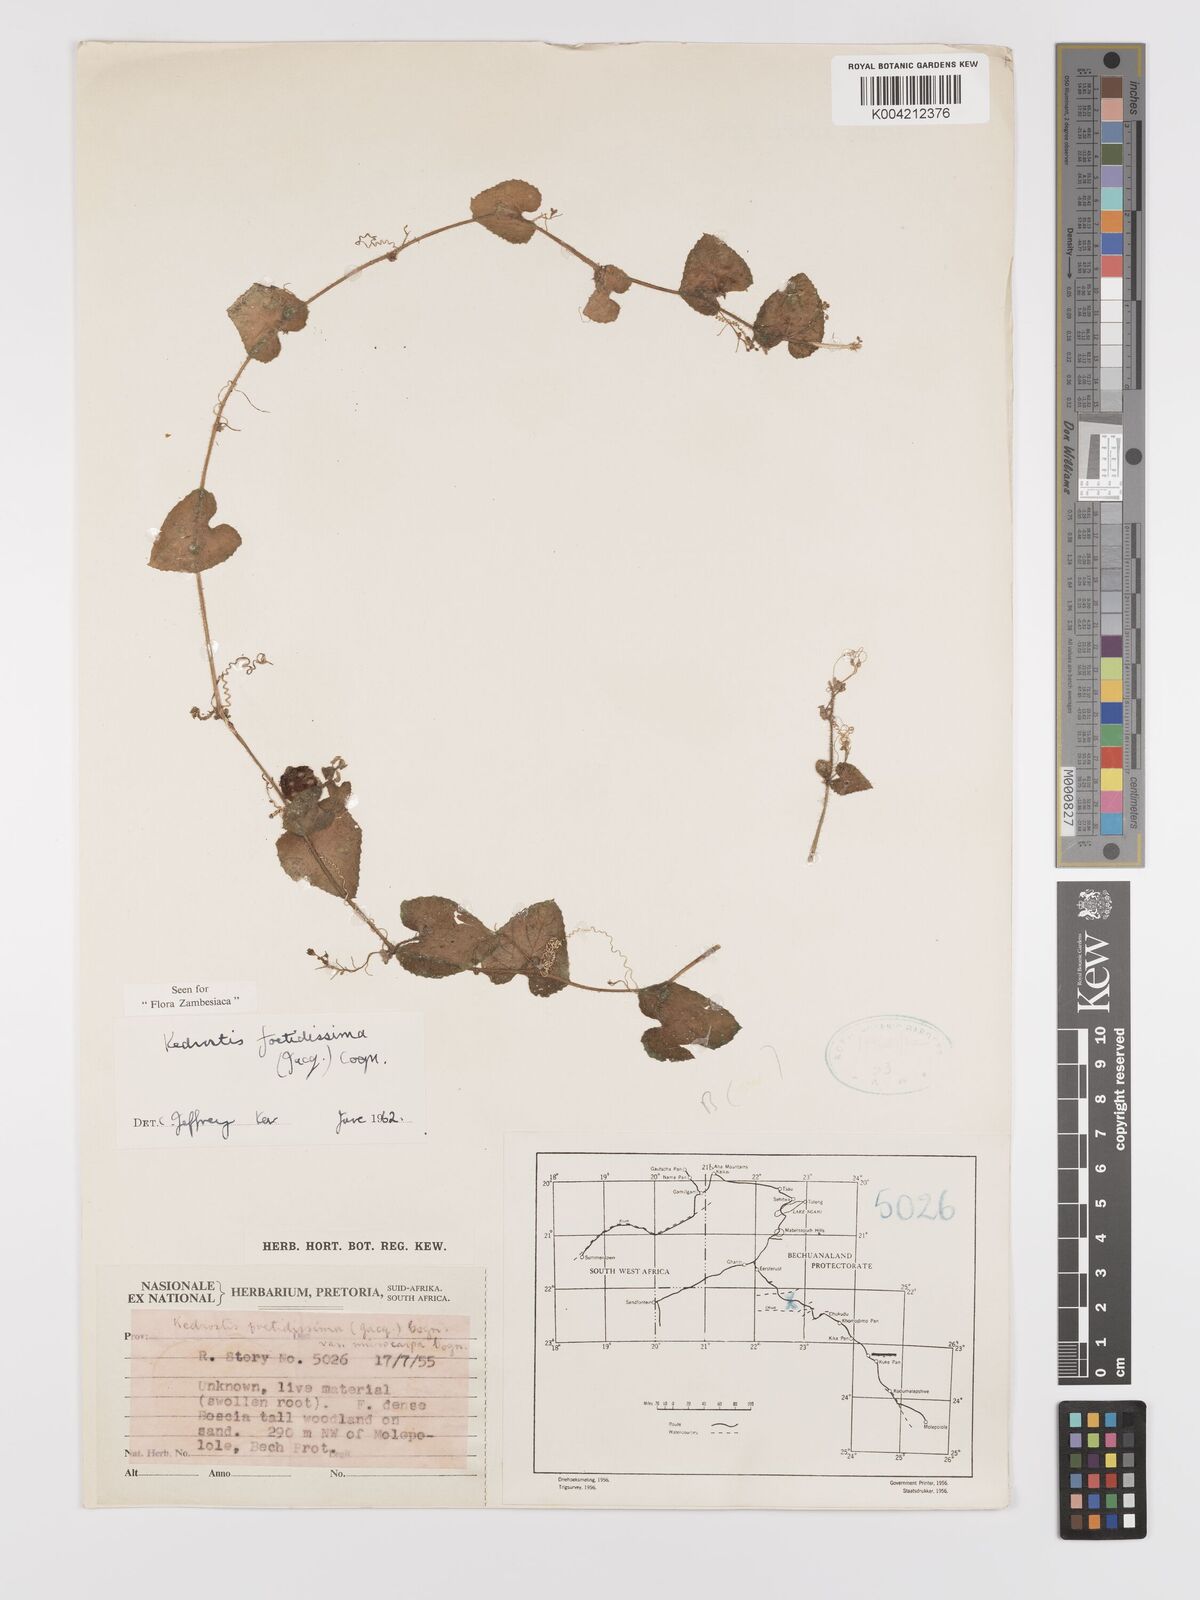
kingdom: Plantae
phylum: Tracheophyta
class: Magnoliopsida
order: Cucurbitales
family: Cucurbitaceae
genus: Kedrostis
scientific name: Kedrostis foetidissima
